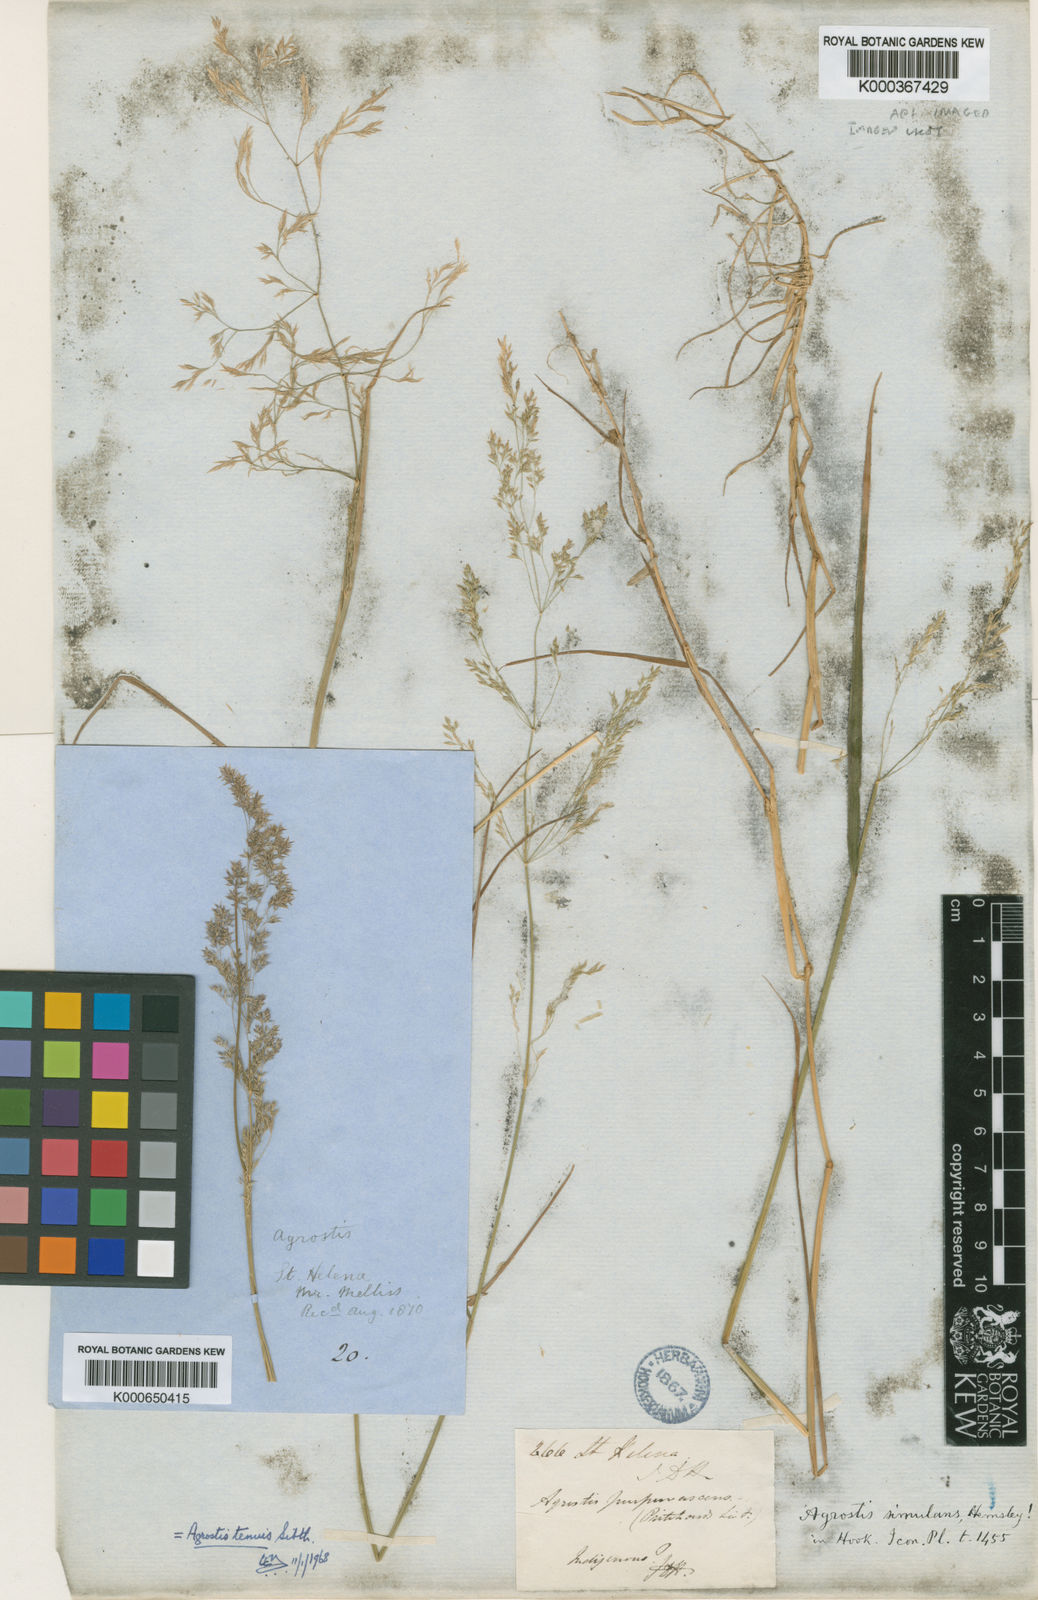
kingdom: Plantae
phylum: Tracheophyta
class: Liliopsida
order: Poales
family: Poaceae
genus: Agrostis
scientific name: Agrostis capillaris
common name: Colonial bentgrass
